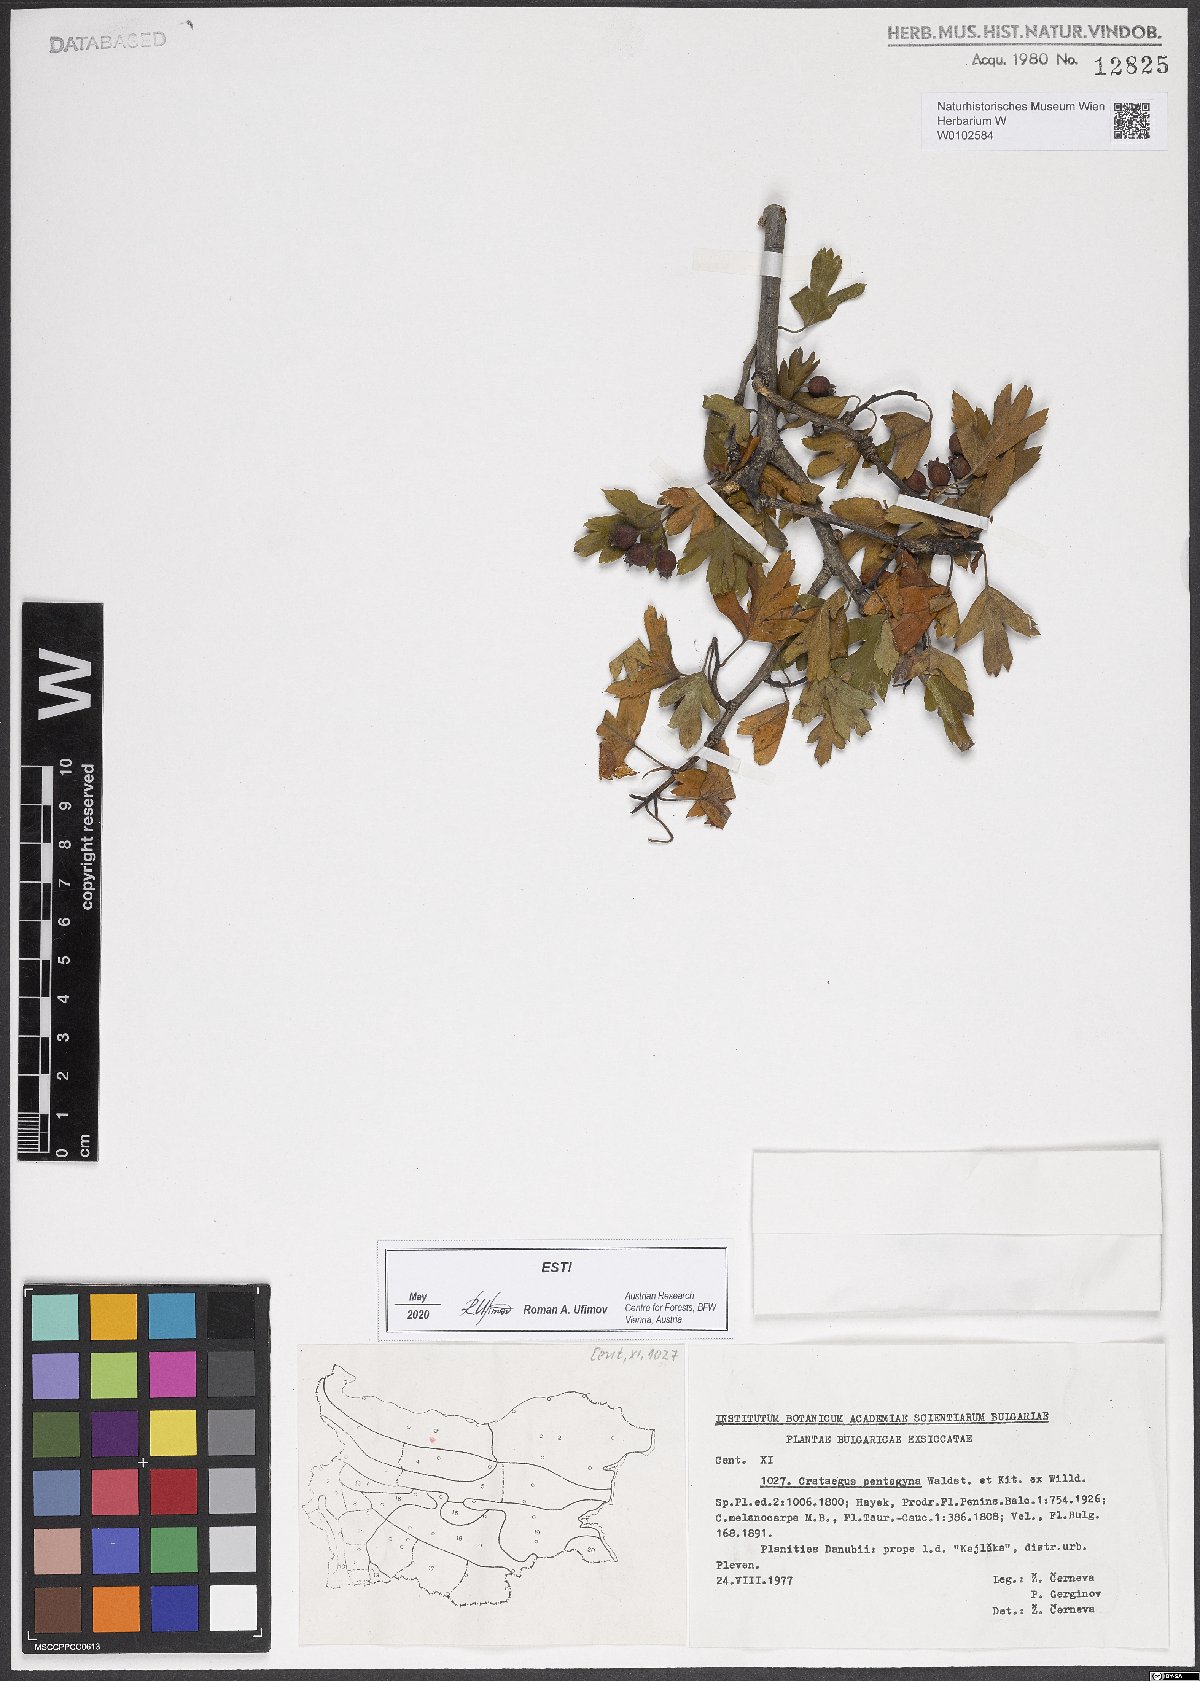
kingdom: Plantae
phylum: Tracheophyta
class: Magnoliopsida
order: Rosales
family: Rosaceae
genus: Crataegus
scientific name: Crataegus pentagyna
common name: Small-flowered black hawthorn
